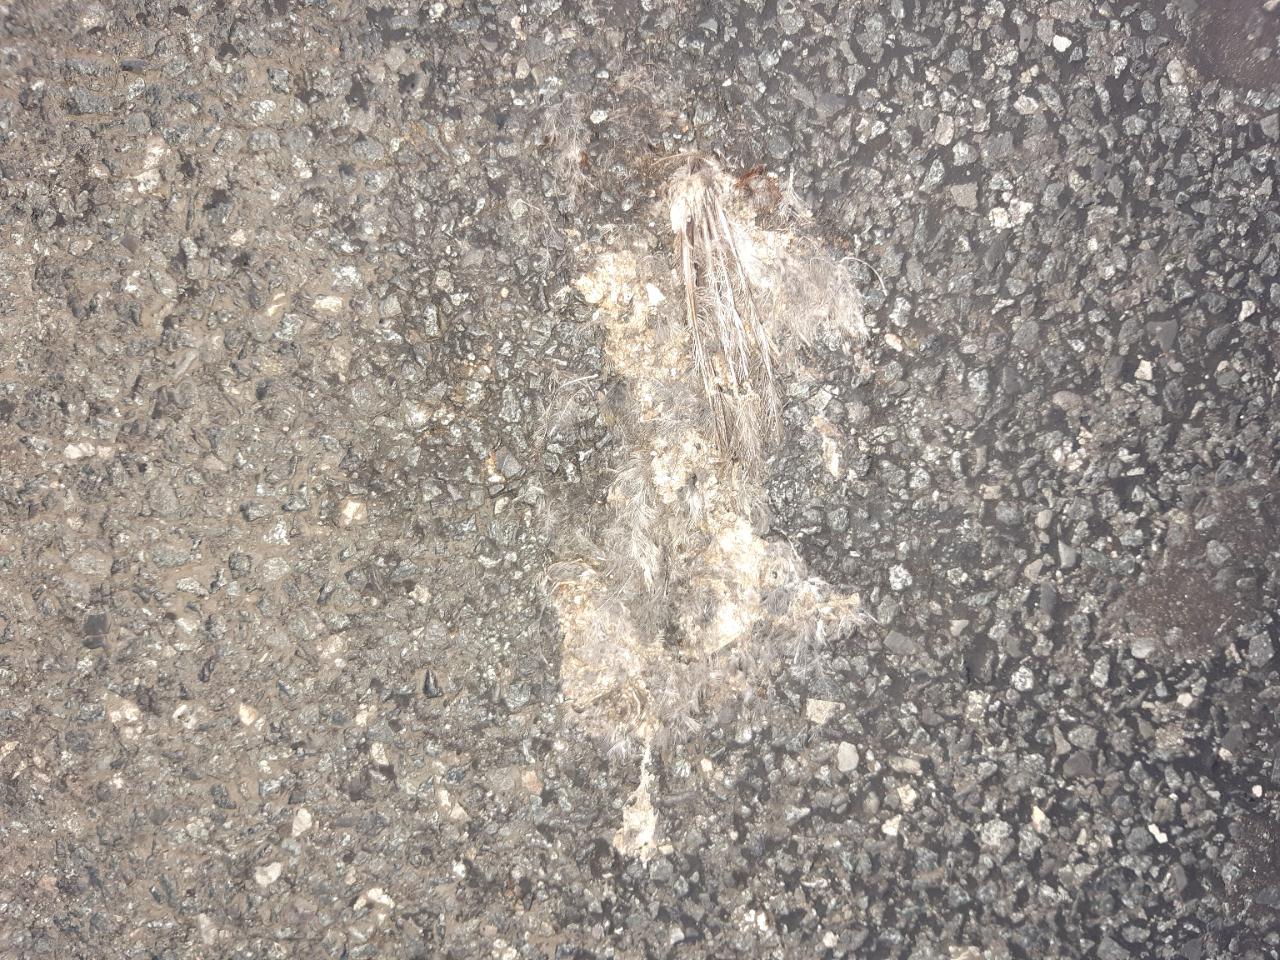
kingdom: Animalia
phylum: Chordata
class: Aves
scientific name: Aves
